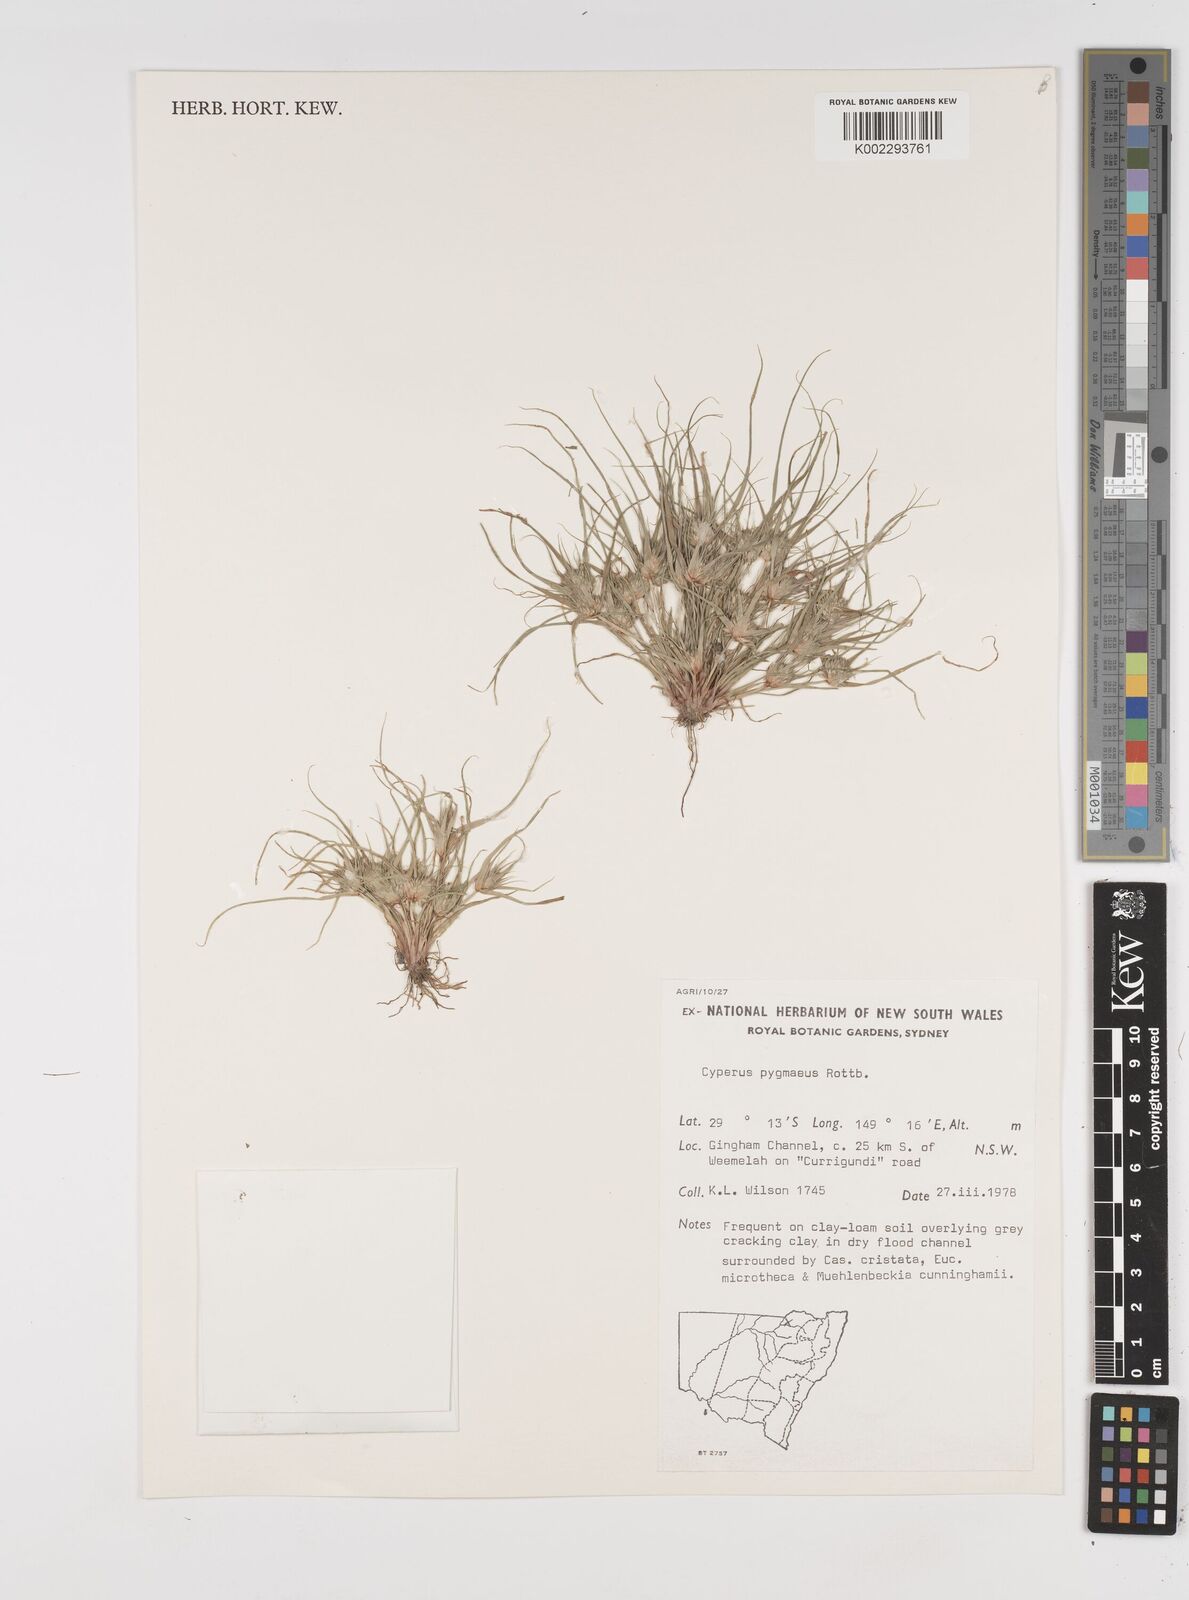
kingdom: Plantae
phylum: Tracheophyta
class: Liliopsida
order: Poales
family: Cyperaceae
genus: Cyperus
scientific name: Cyperus michelianus
